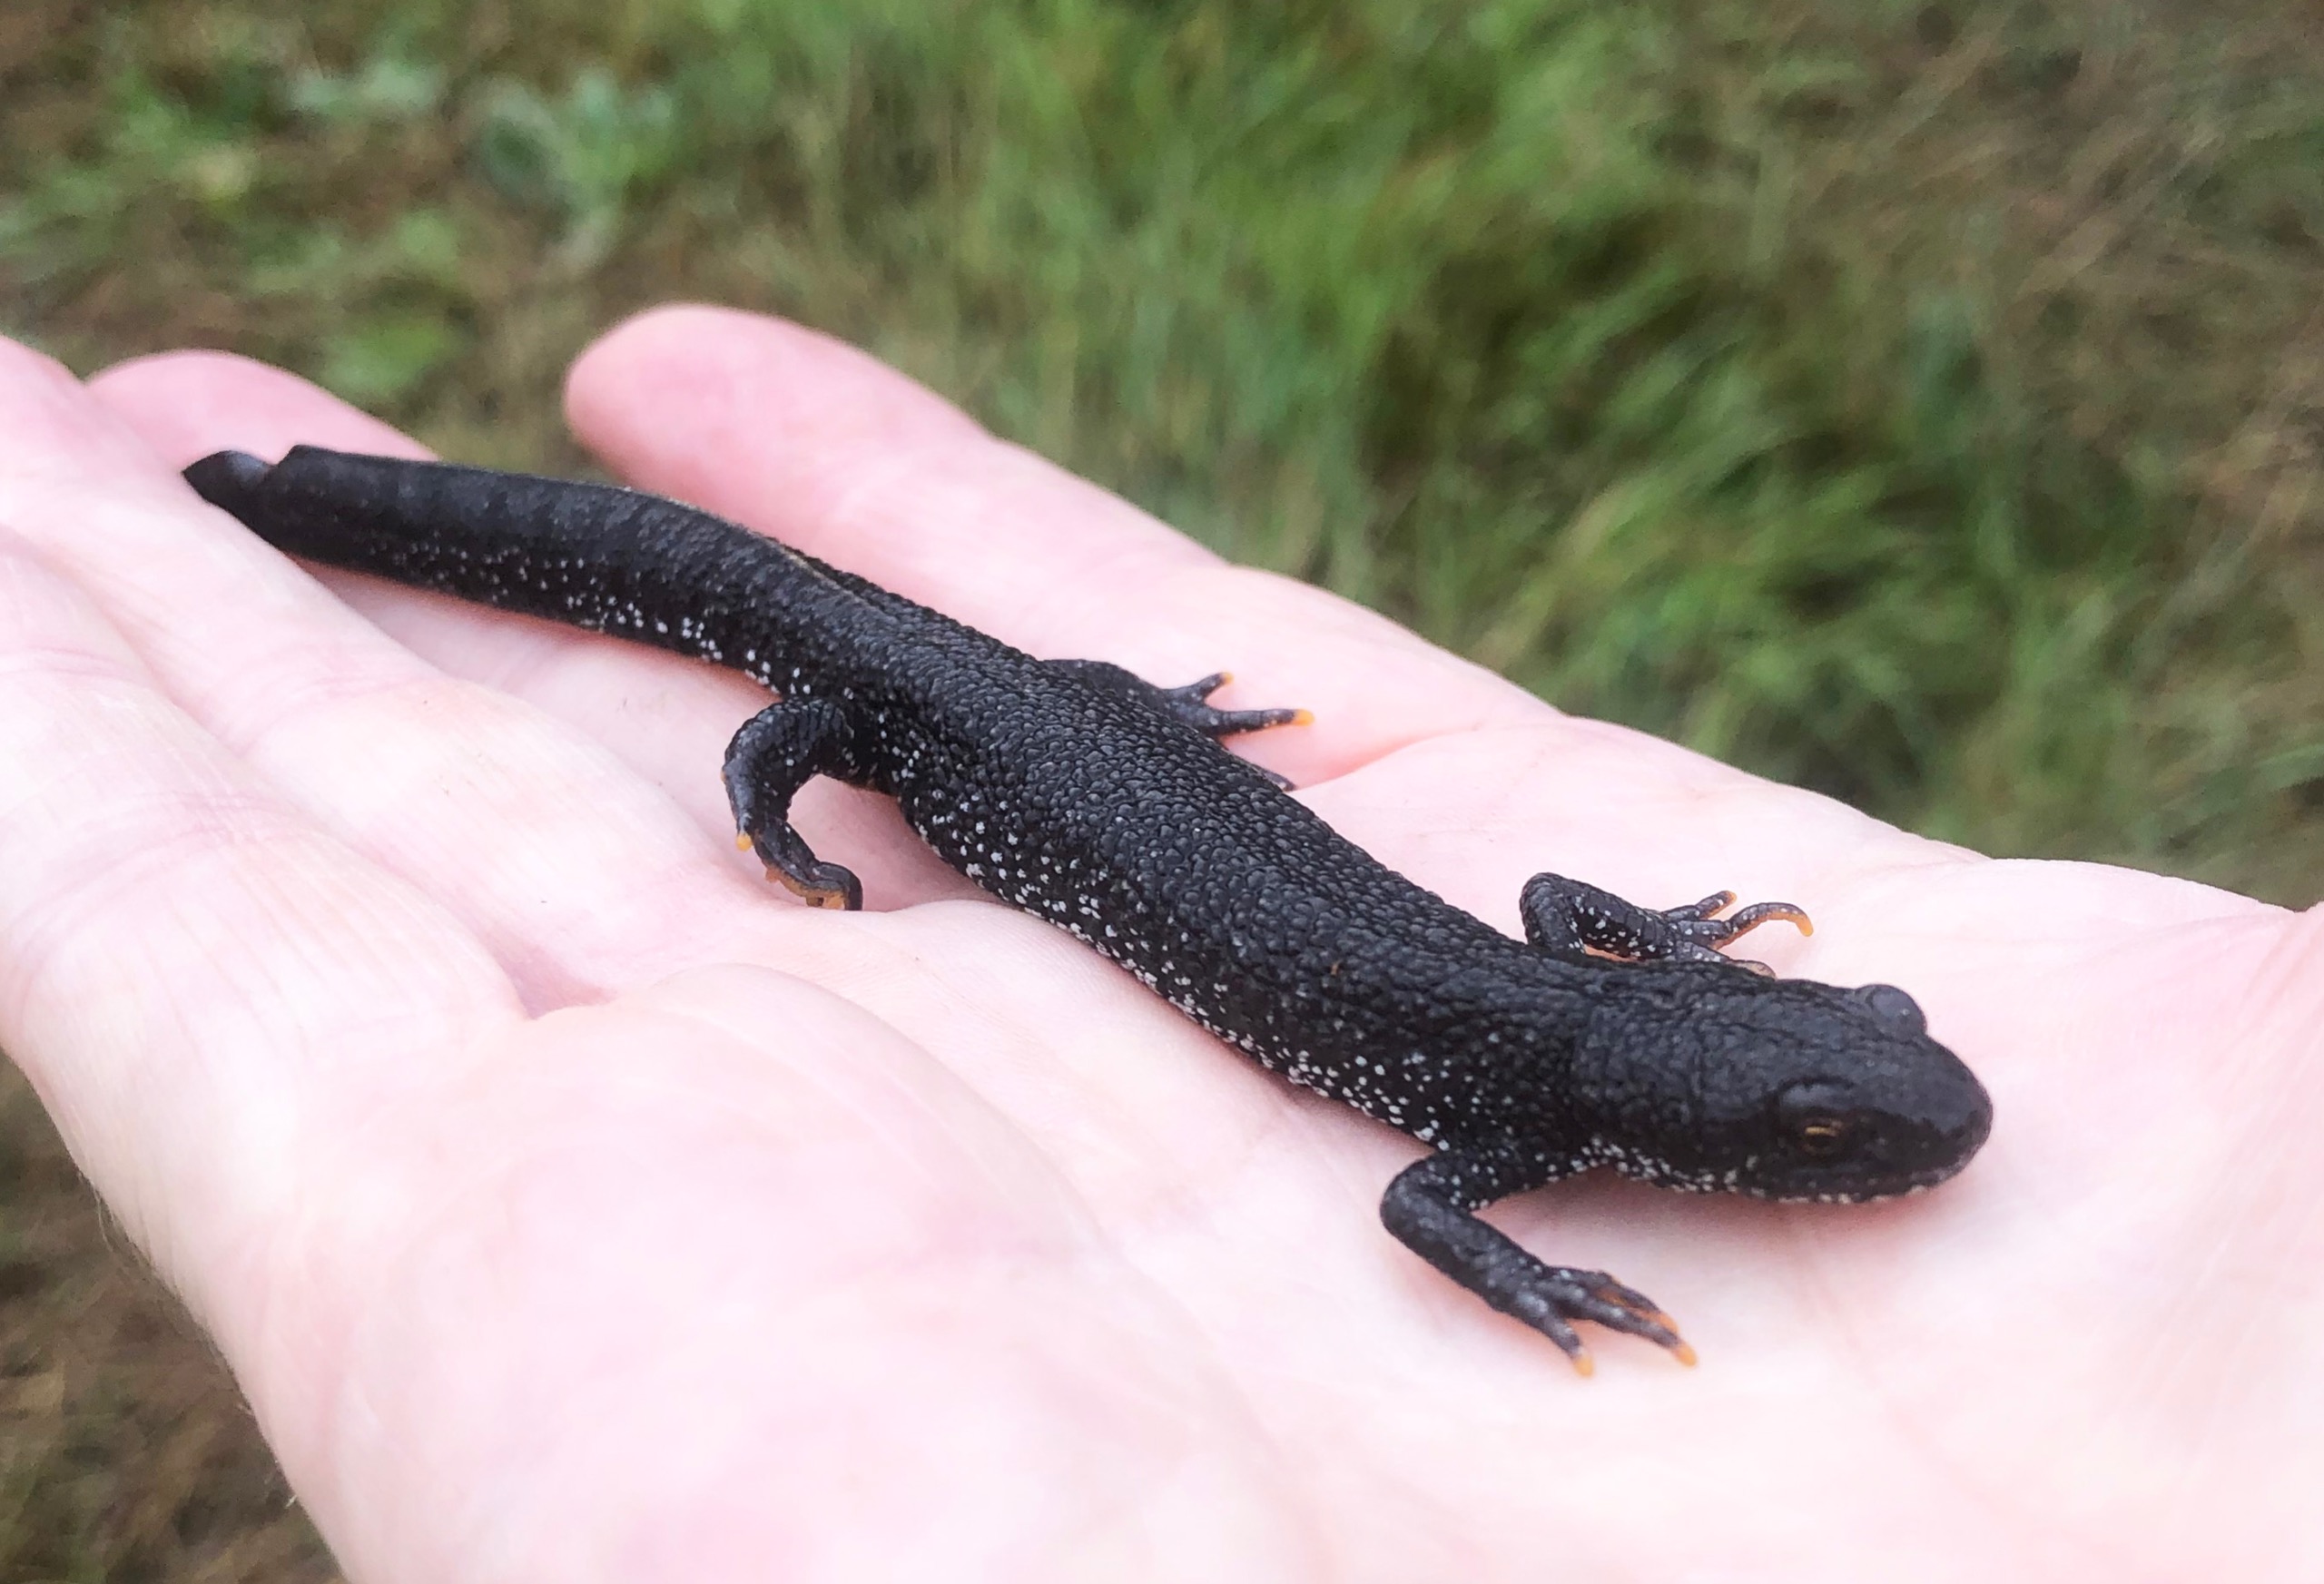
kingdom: Animalia
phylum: Chordata
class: Amphibia
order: Caudata
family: Salamandridae
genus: Triturus
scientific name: Triturus cristatus
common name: Stor vandsalamander
